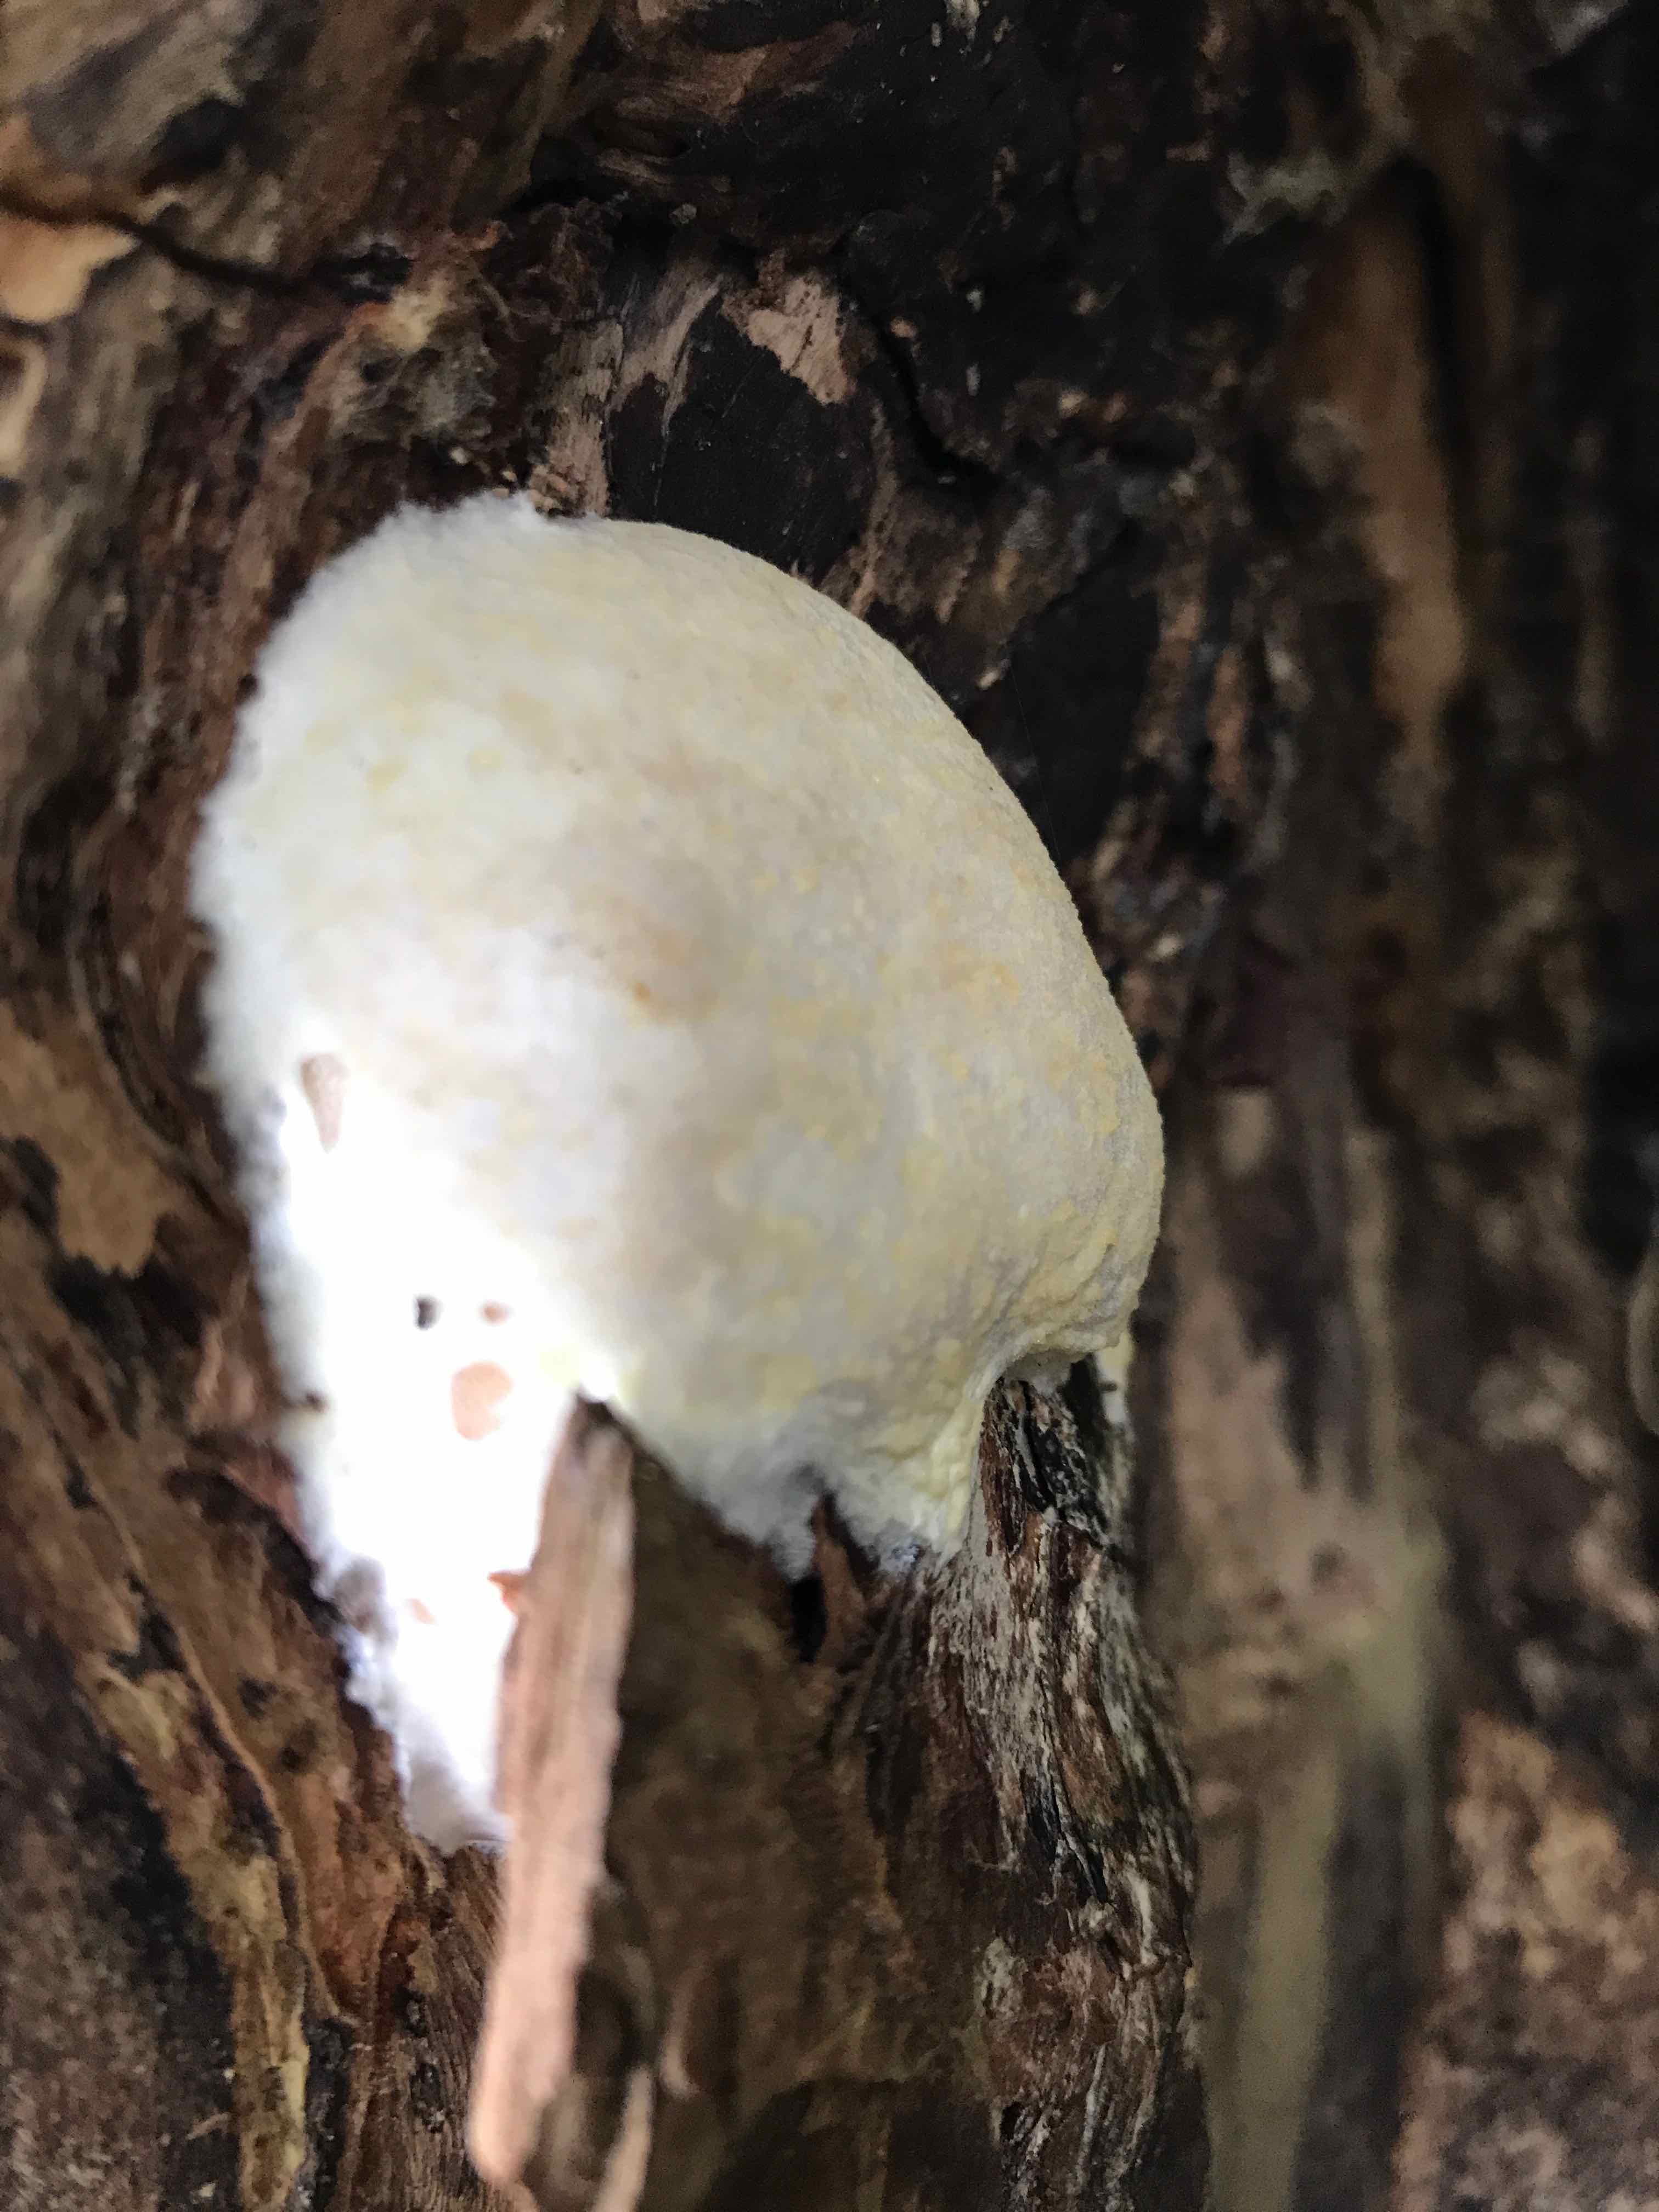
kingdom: Protozoa
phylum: Mycetozoa
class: Myxomycetes
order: Cribrariales
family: Tubiferaceae
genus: Reticularia
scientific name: Reticularia lycoperdon
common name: skinnende støvpude
